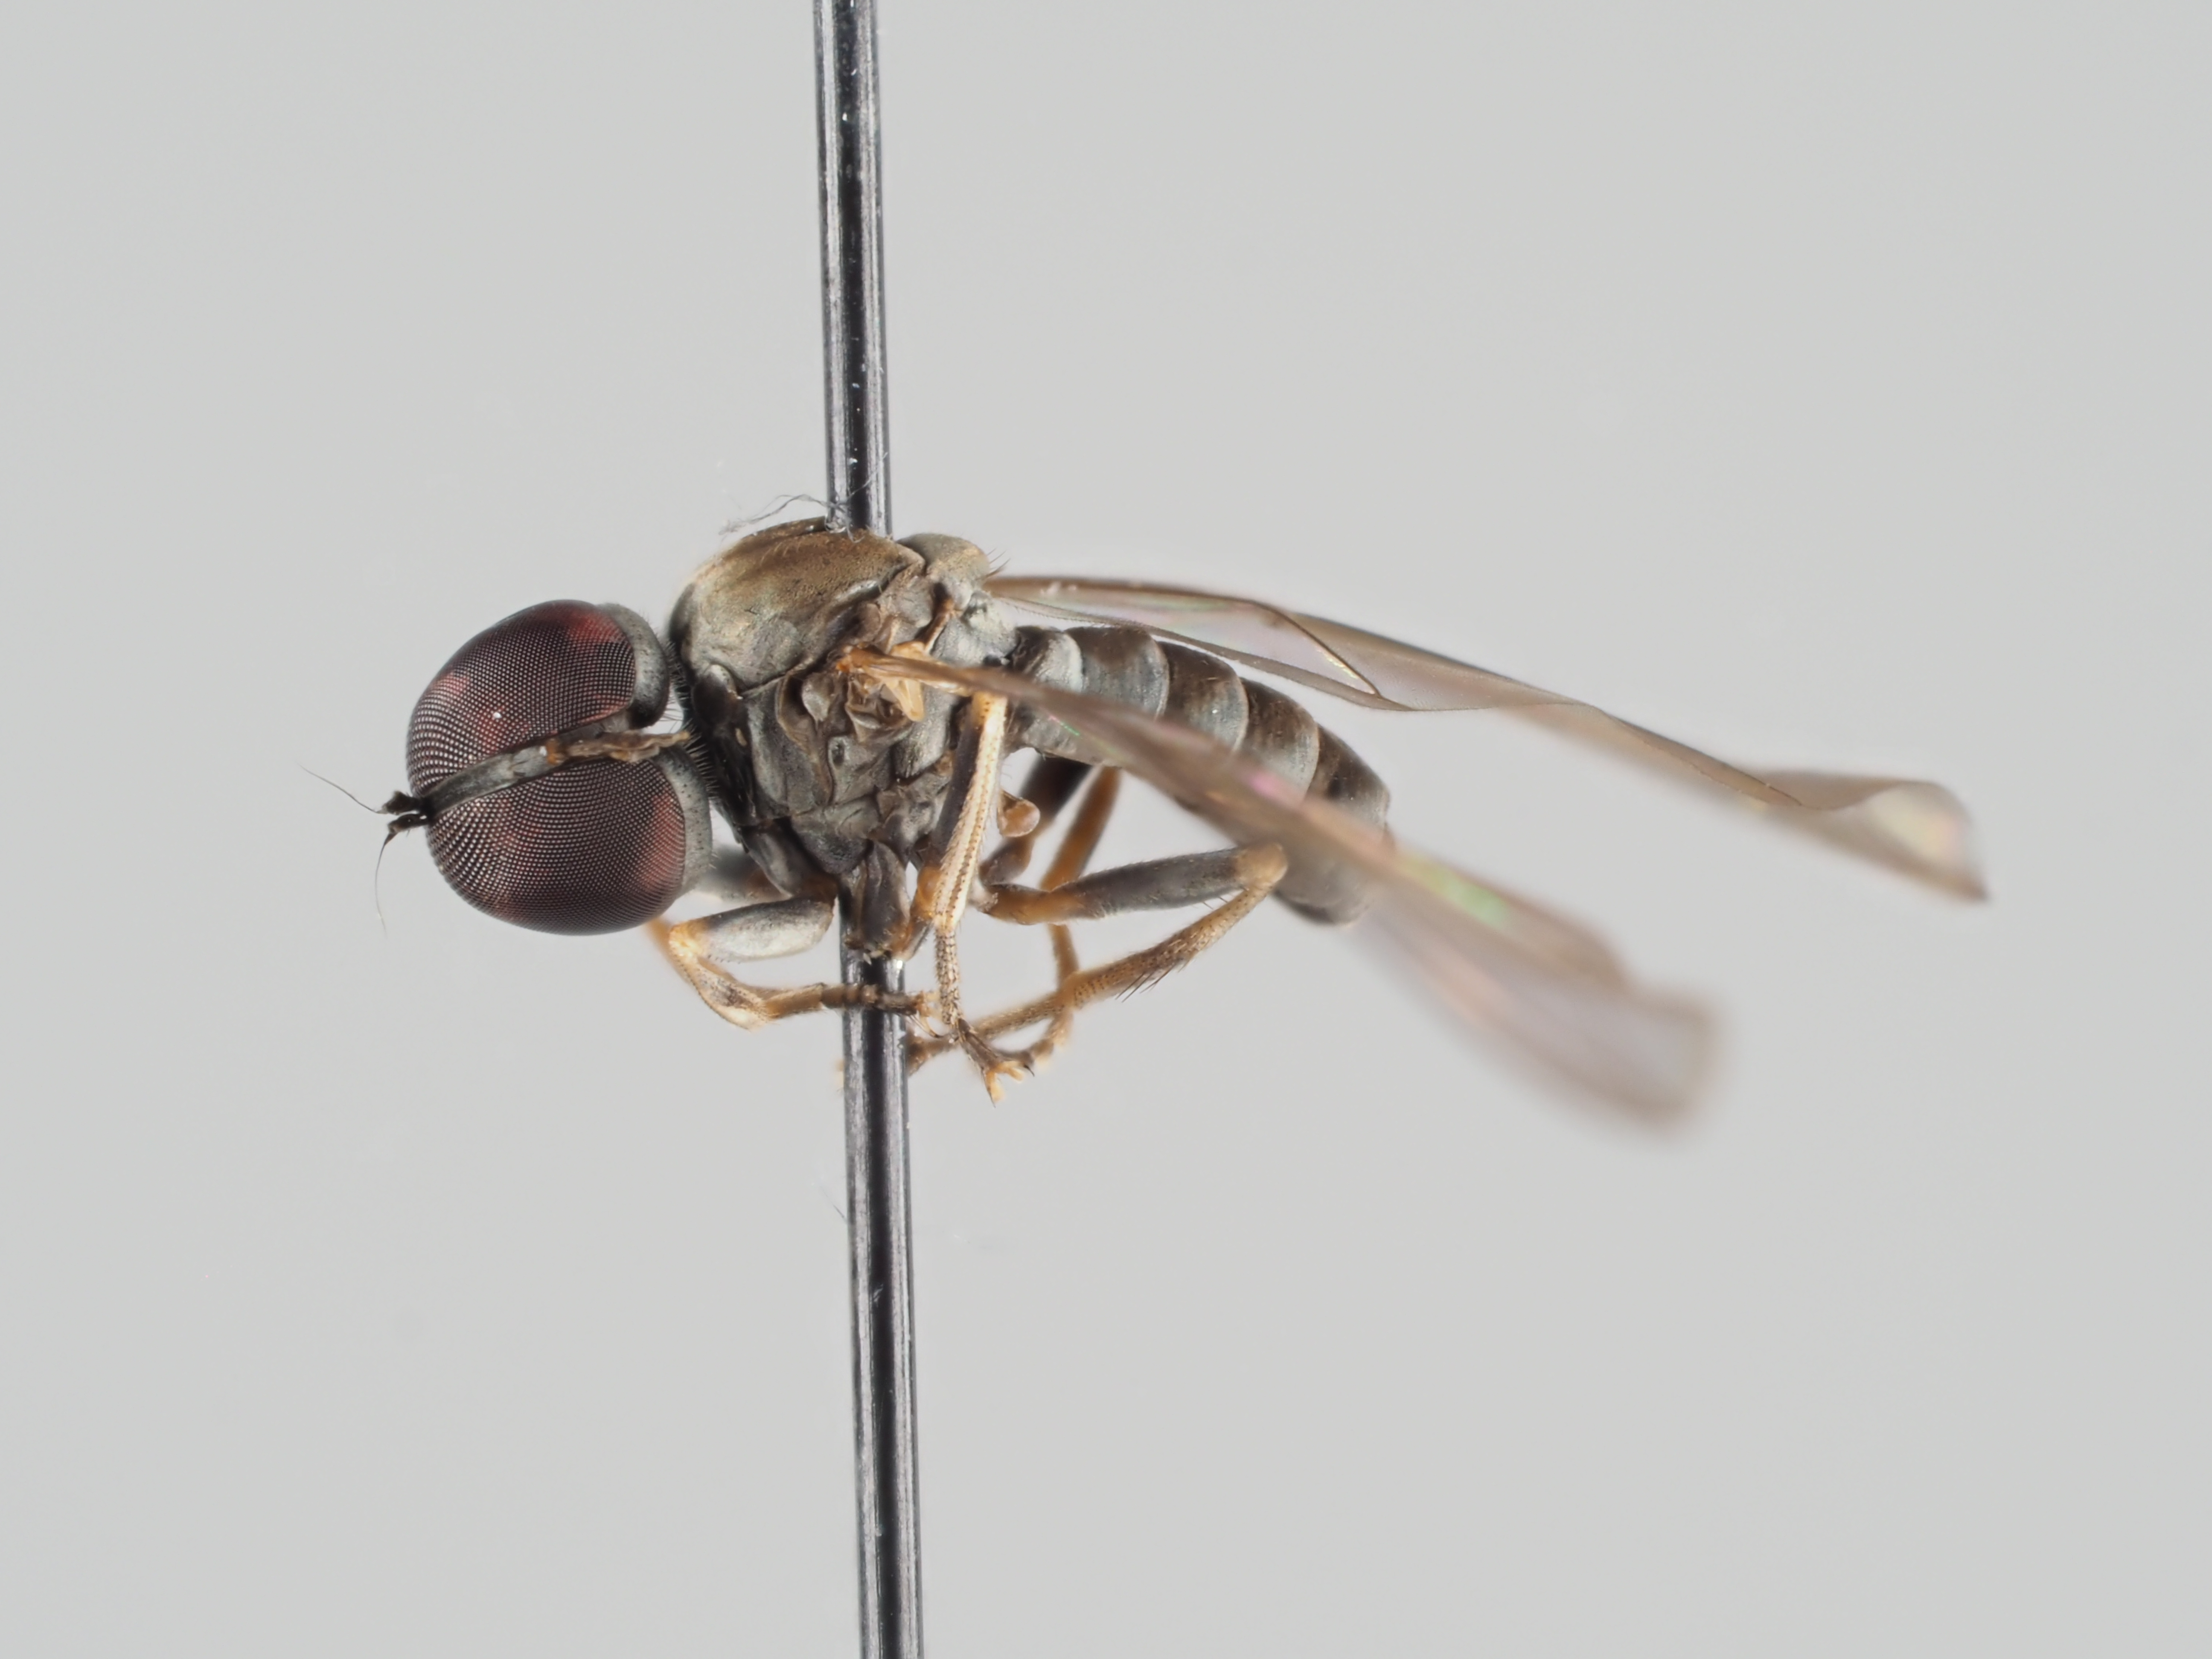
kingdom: Animalia
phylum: Arthropoda
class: Insecta
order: Diptera
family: Pipunculidae
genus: Semicephalops
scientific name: Semicephalops carinatus
